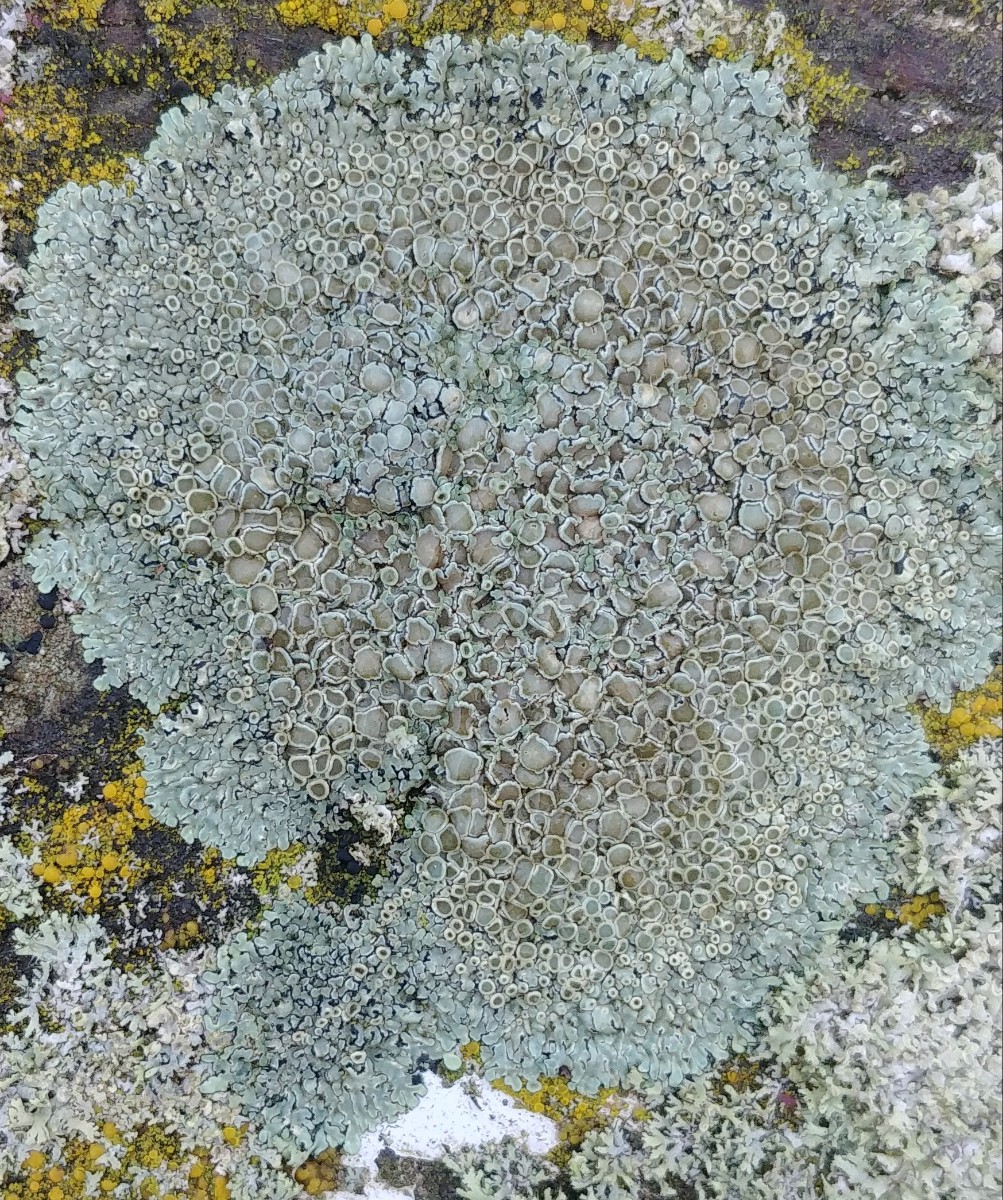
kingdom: Fungi
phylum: Ascomycota
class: Lecanoromycetes
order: Lecanorales
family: Lecanoraceae
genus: Protoparmeliopsis
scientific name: Protoparmeliopsis muralis
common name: randfliget kantskivelav
